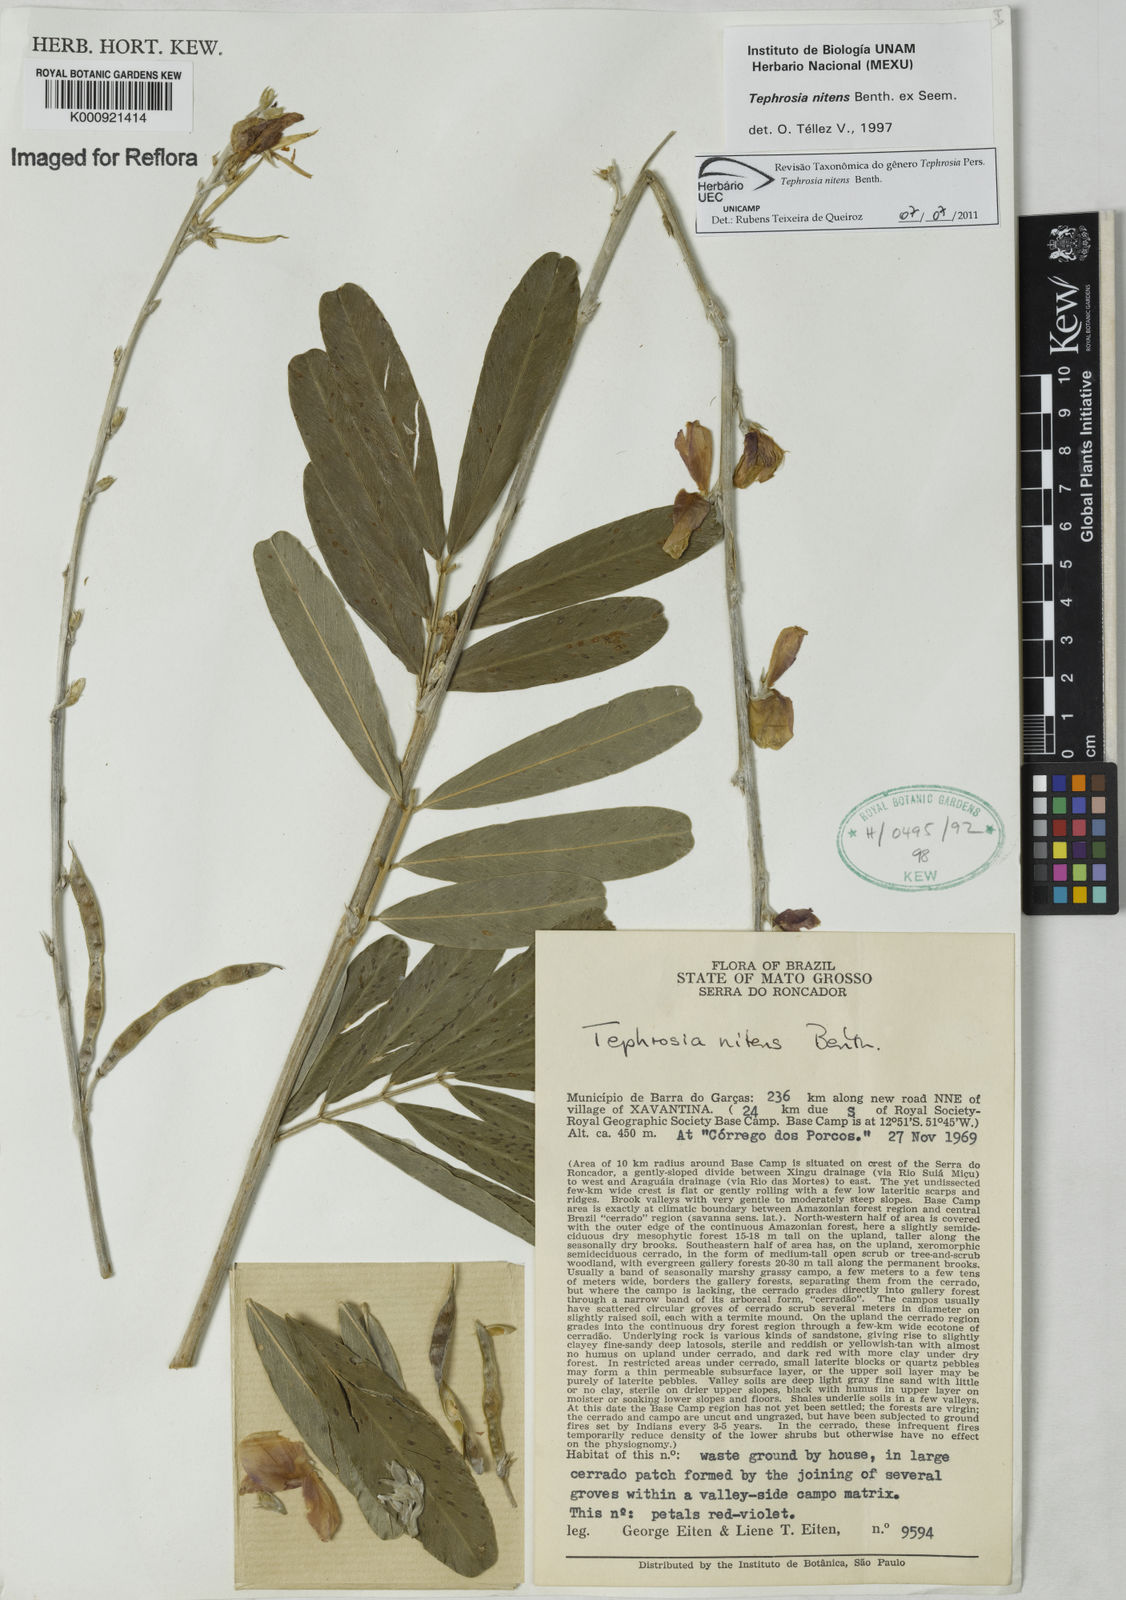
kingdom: Plantae
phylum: Tracheophyta
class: Magnoliopsida
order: Fabales
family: Fabaceae
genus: Tephrosia
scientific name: Tephrosia nitens
